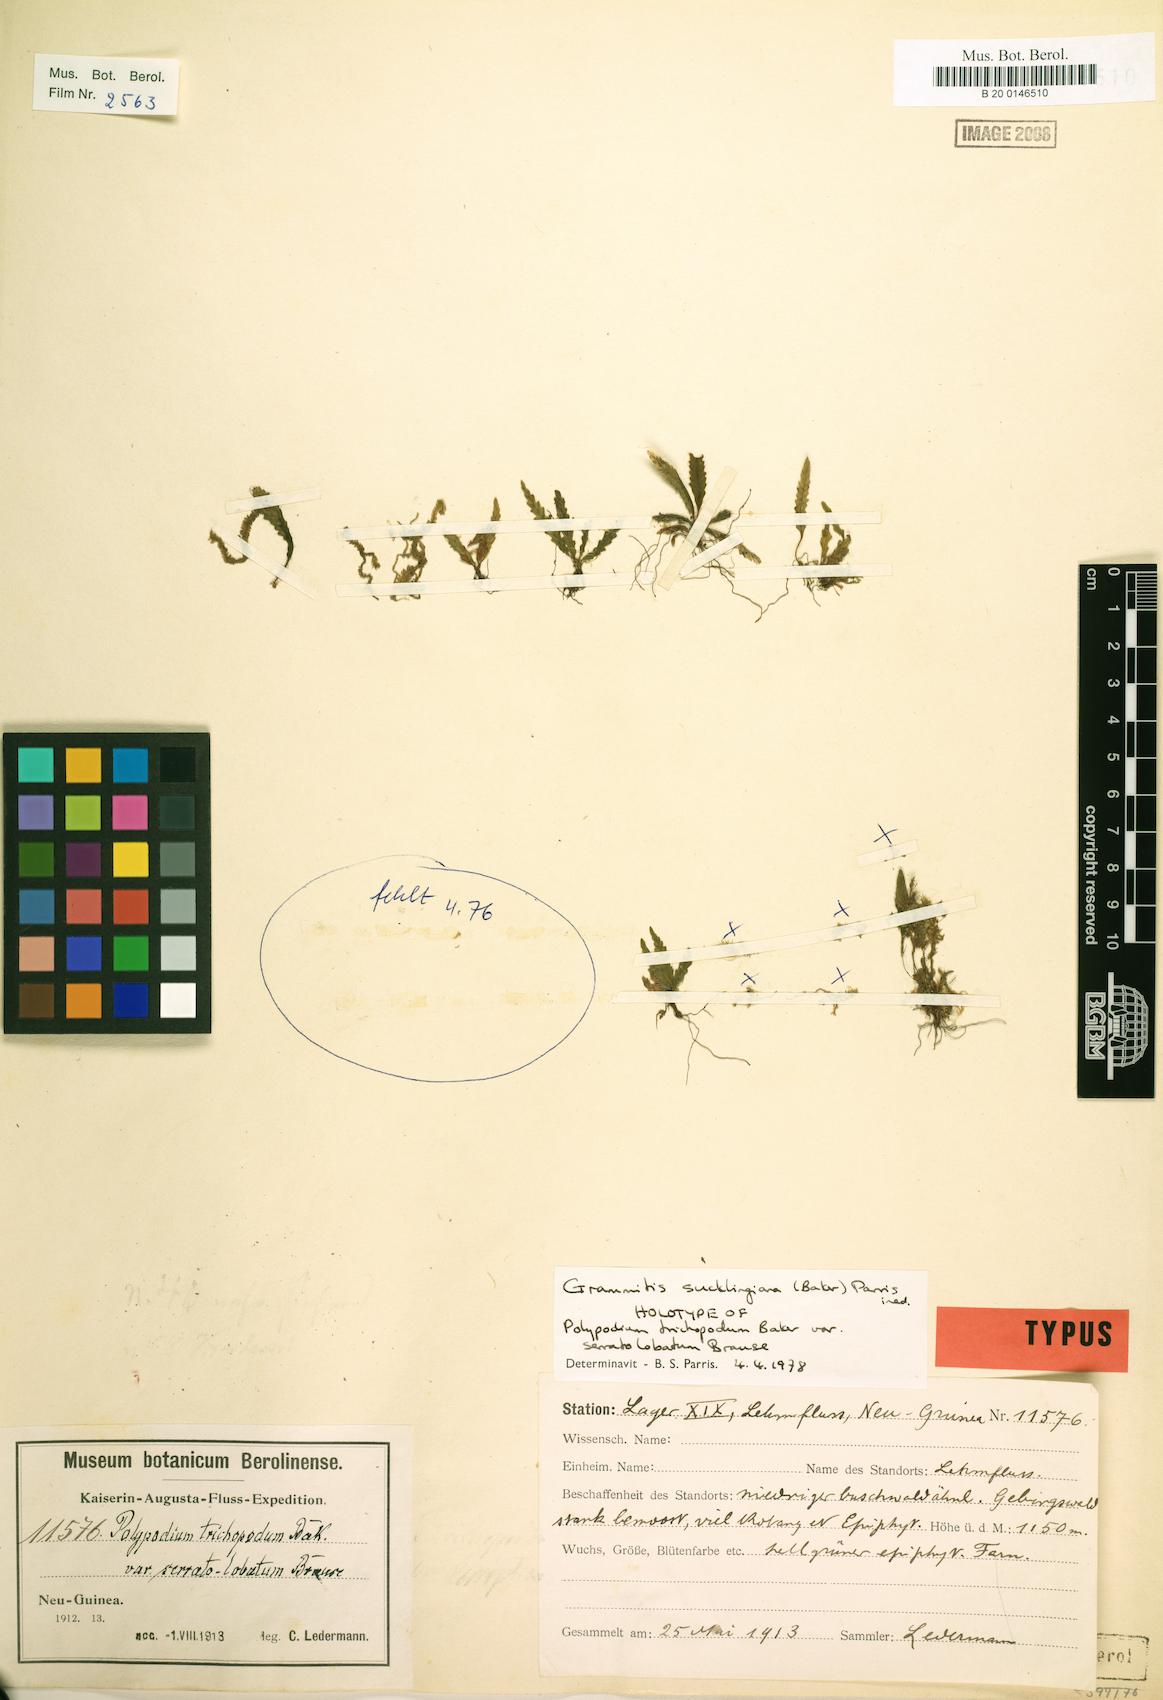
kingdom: Plantae
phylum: Tracheophyta
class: Polypodiopsida
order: Polypodiales
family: Polypodiaceae
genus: Oreogrammitis
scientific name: Oreogrammitis reinwardtii
